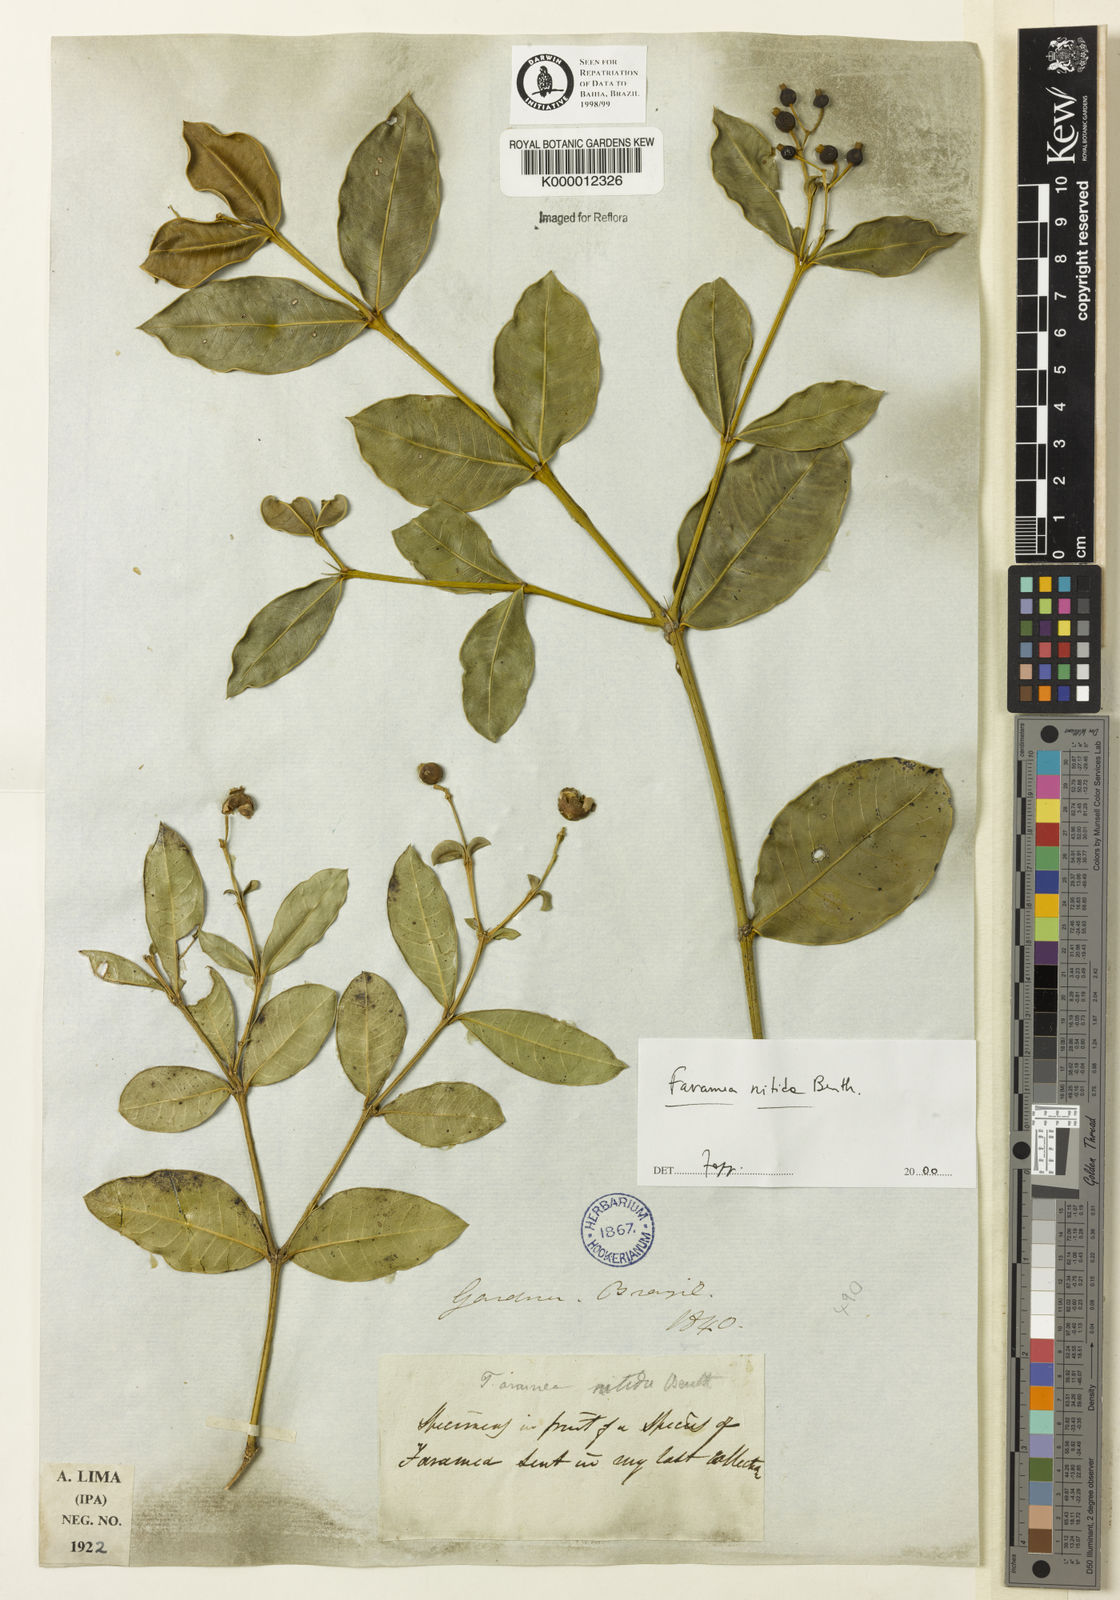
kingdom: Plantae
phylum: Tracheophyta
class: Magnoliopsida
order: Gentianales
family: Rubiaceae
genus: Faramea
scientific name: Faramea nitida
